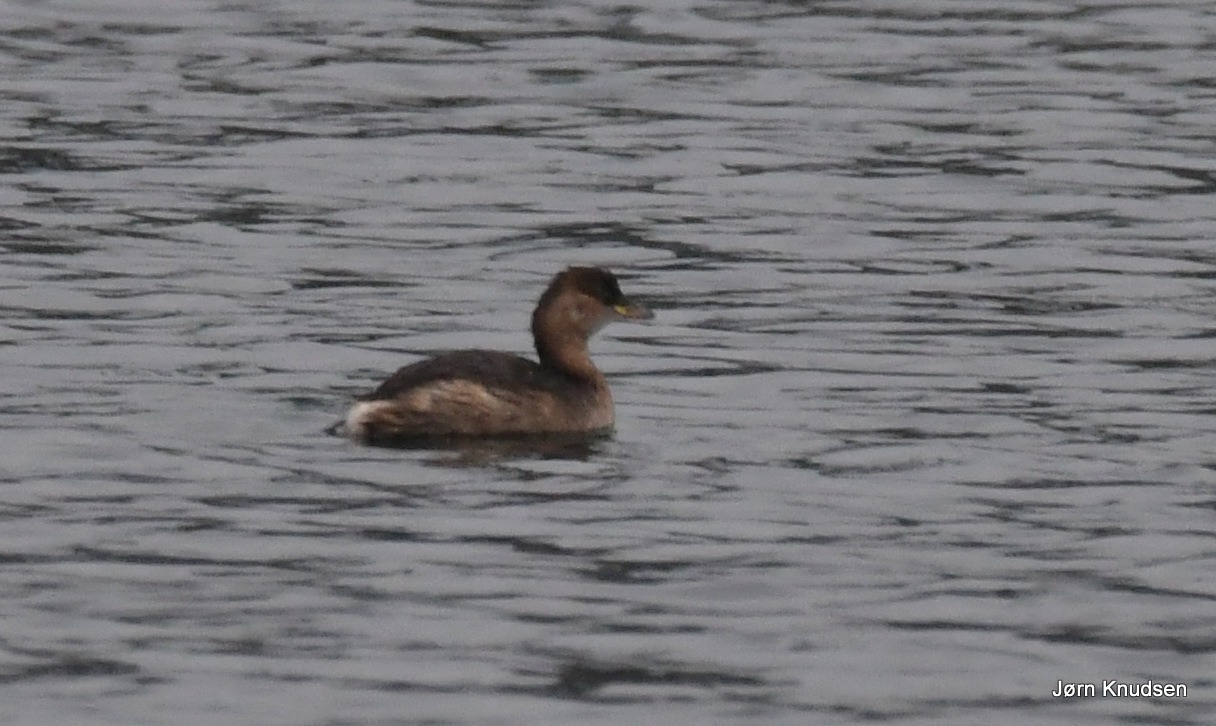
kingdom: Animalia
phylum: Chordata
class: Aves
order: Podicipediformes
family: Podicipedidae
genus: Tachybaptus
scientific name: Tachybaptus ruficollis
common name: Lille lappedykker
